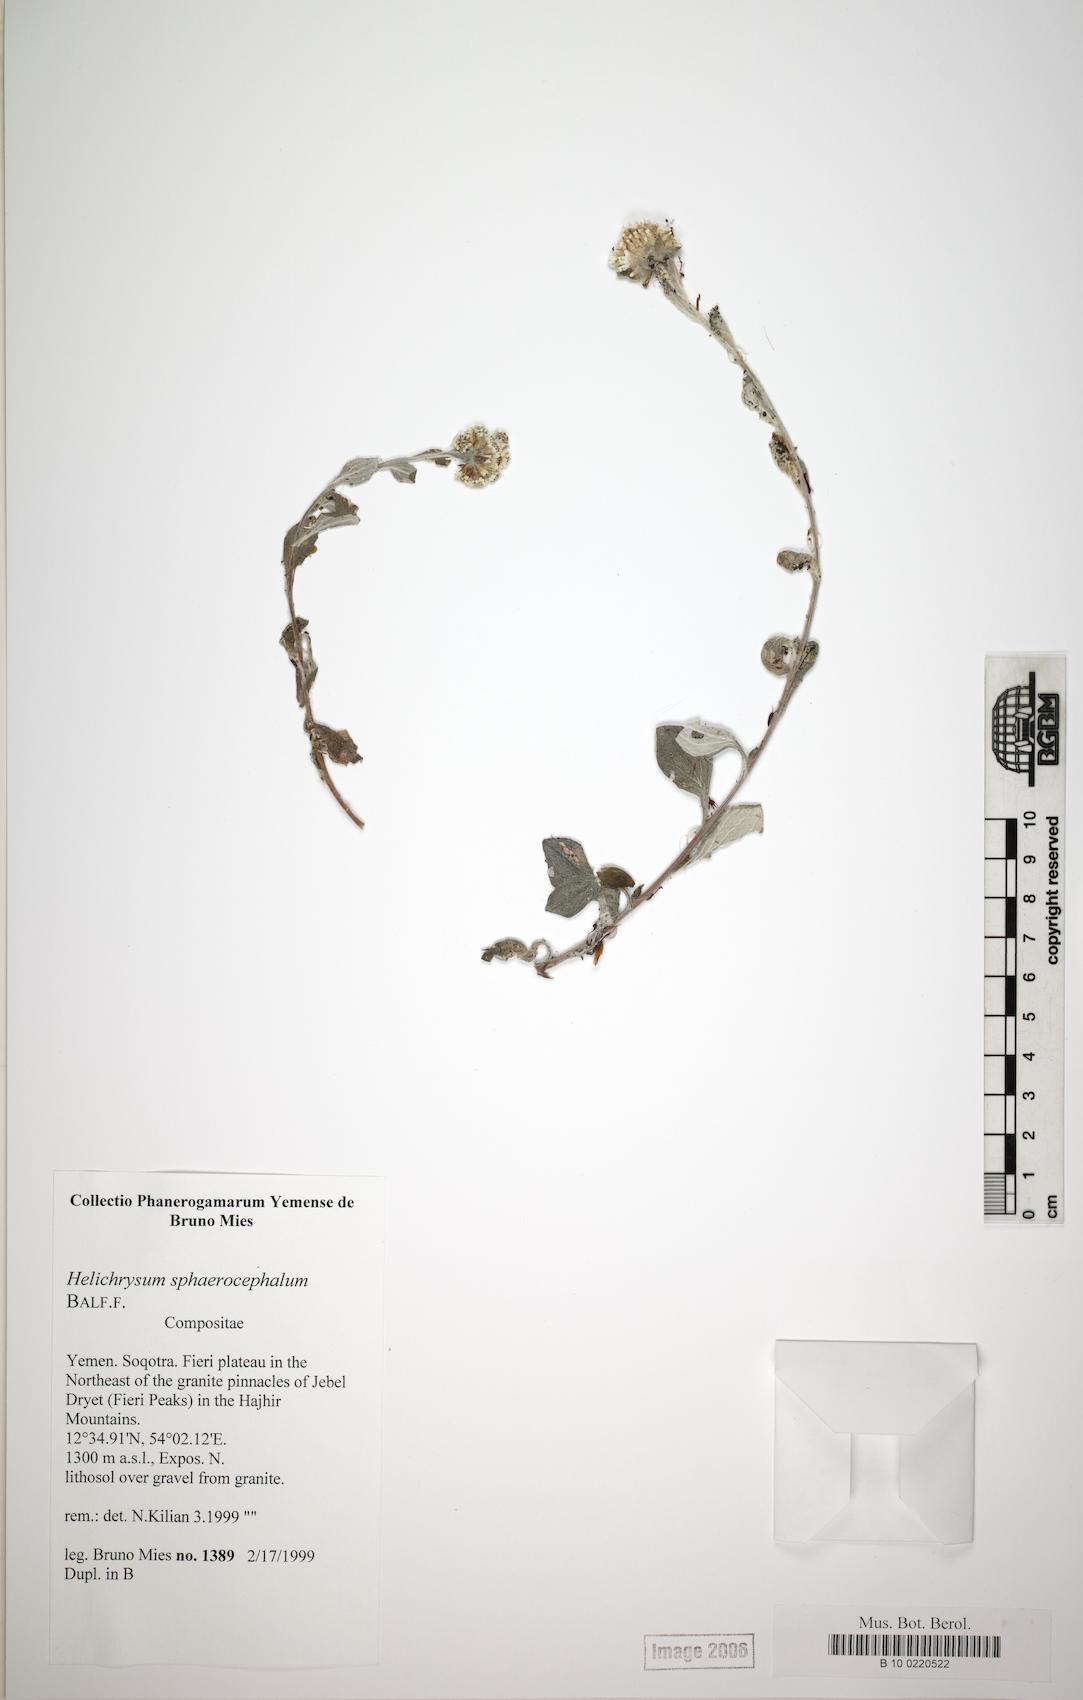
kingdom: Plantae
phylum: Tracheophyta
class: Magnoliopsida
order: Asterales
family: Asteraceae
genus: Libinhania
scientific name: Libinhania sphaerocephala
